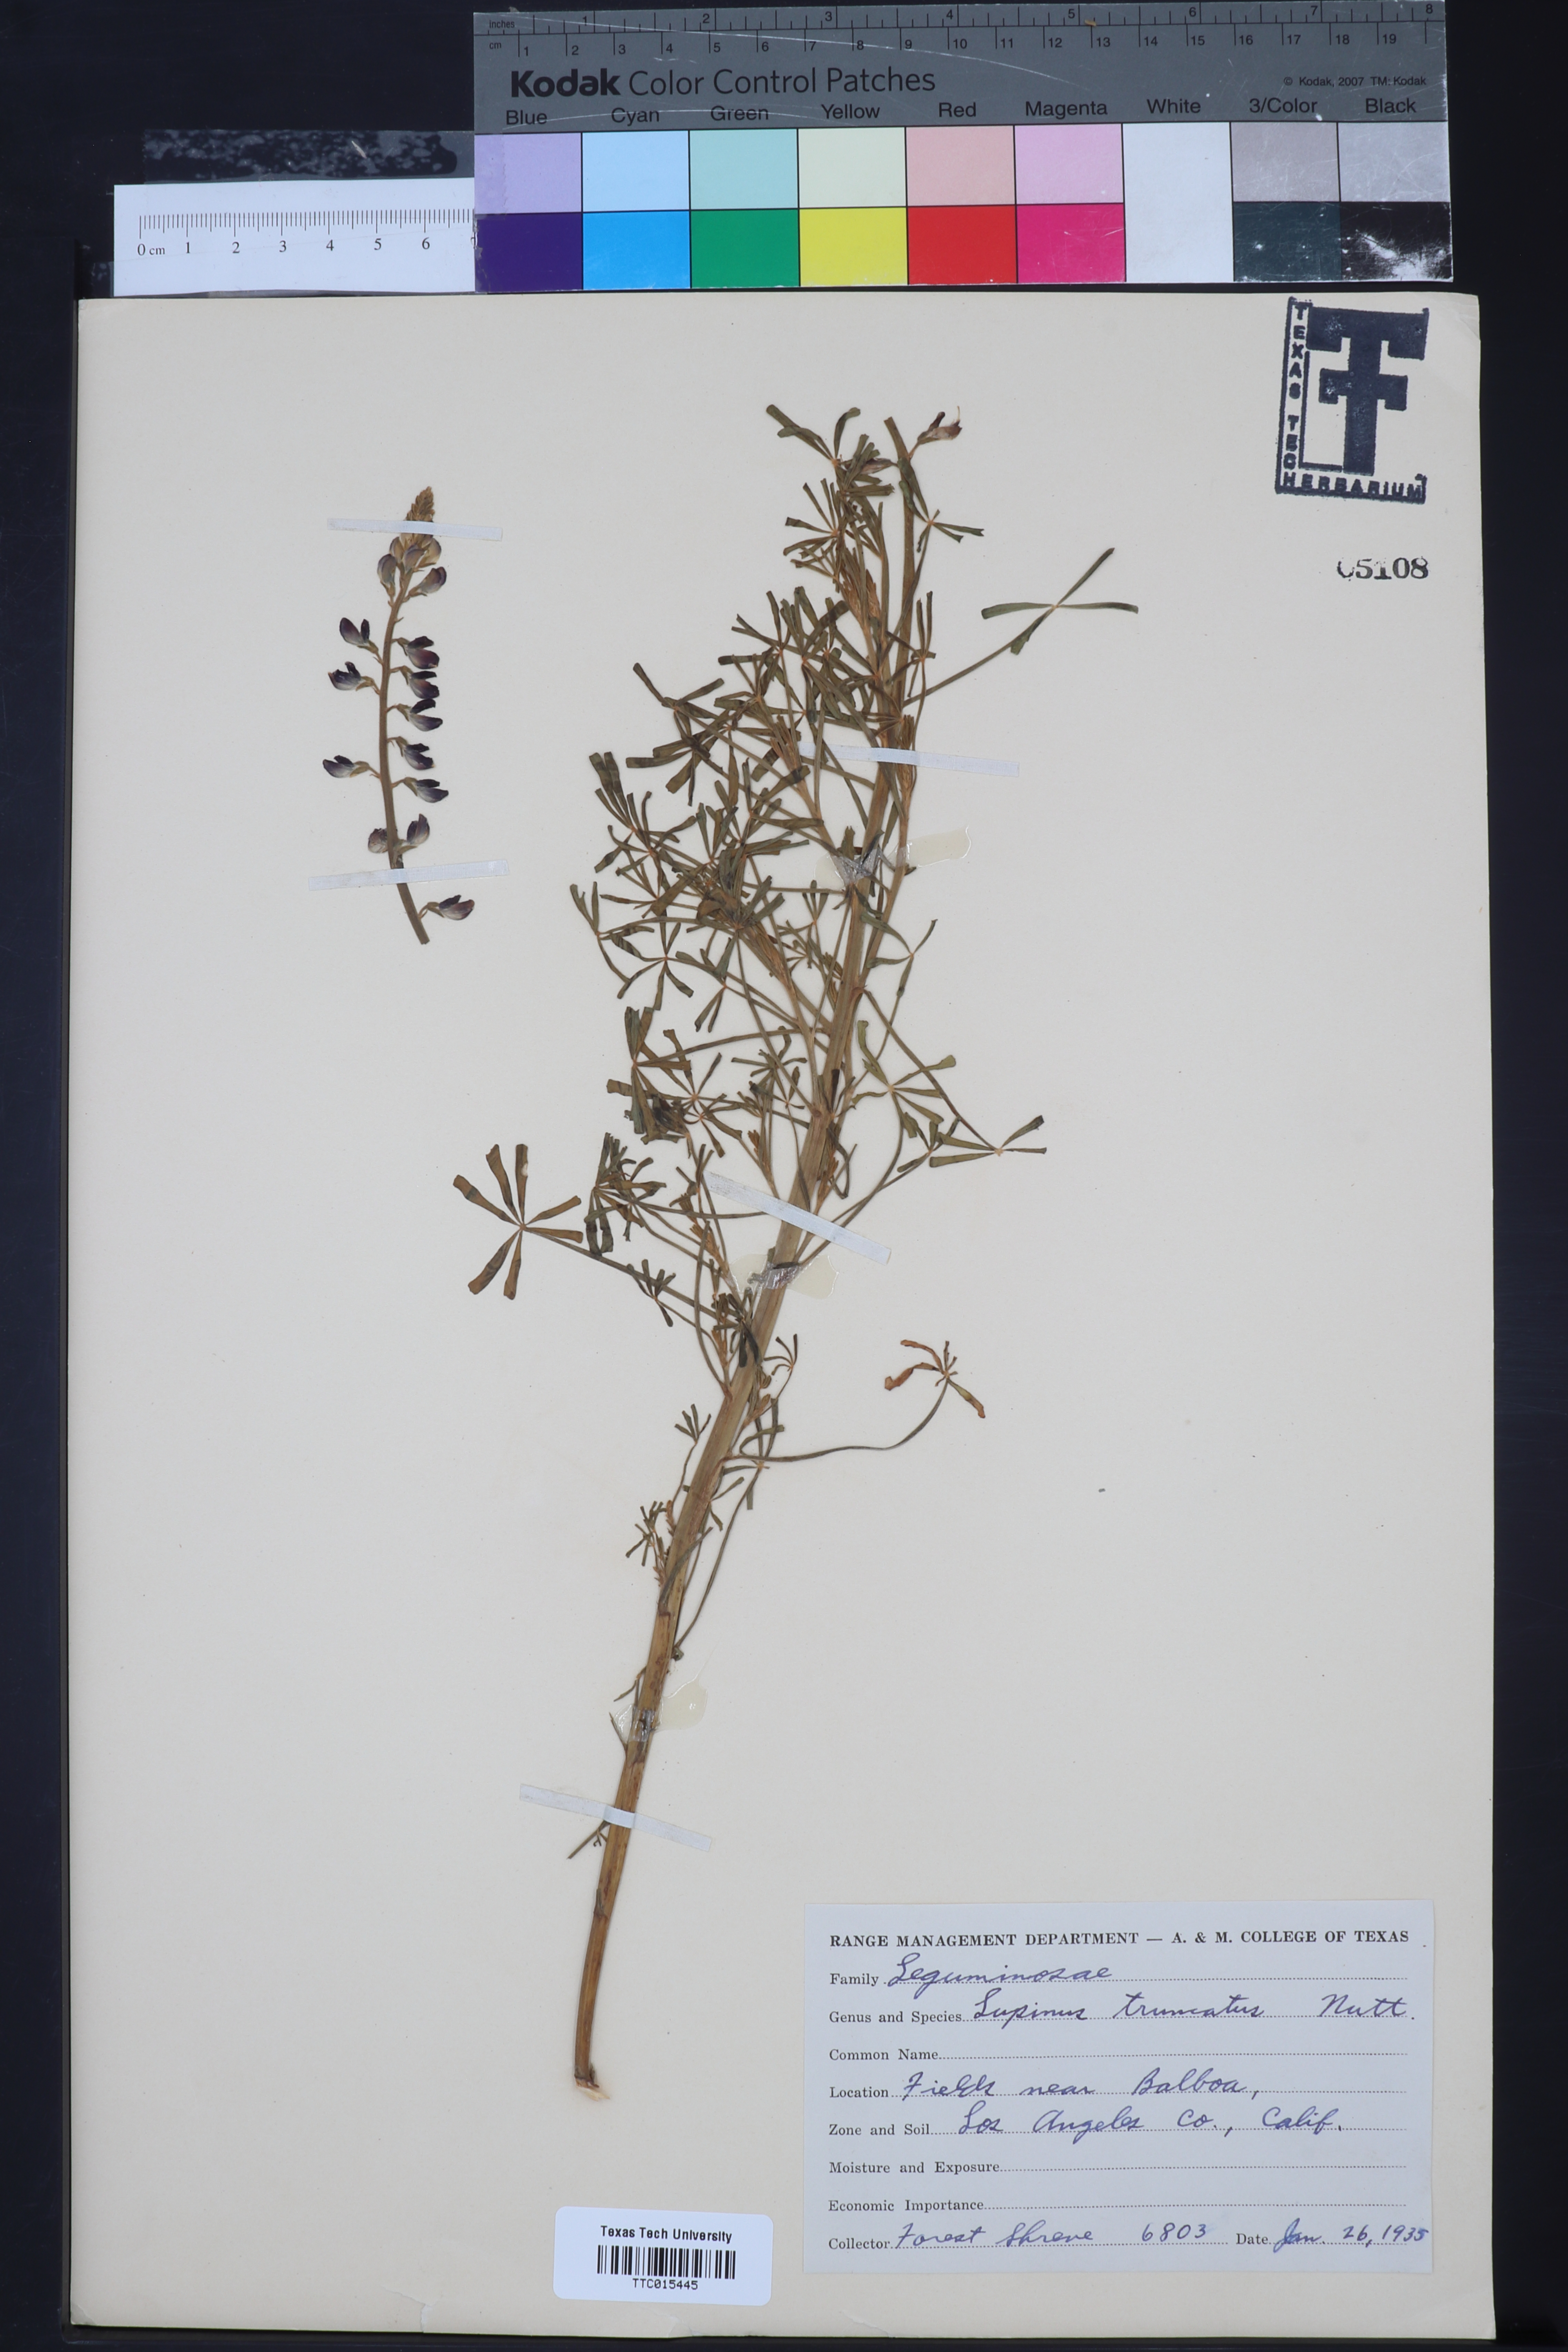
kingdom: Plantae
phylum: Tracheophyta
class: Magnoliopsida
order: Fabales
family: Fabaceae
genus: Lupinus
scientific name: Lupinus plattensis
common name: Platte lupine
